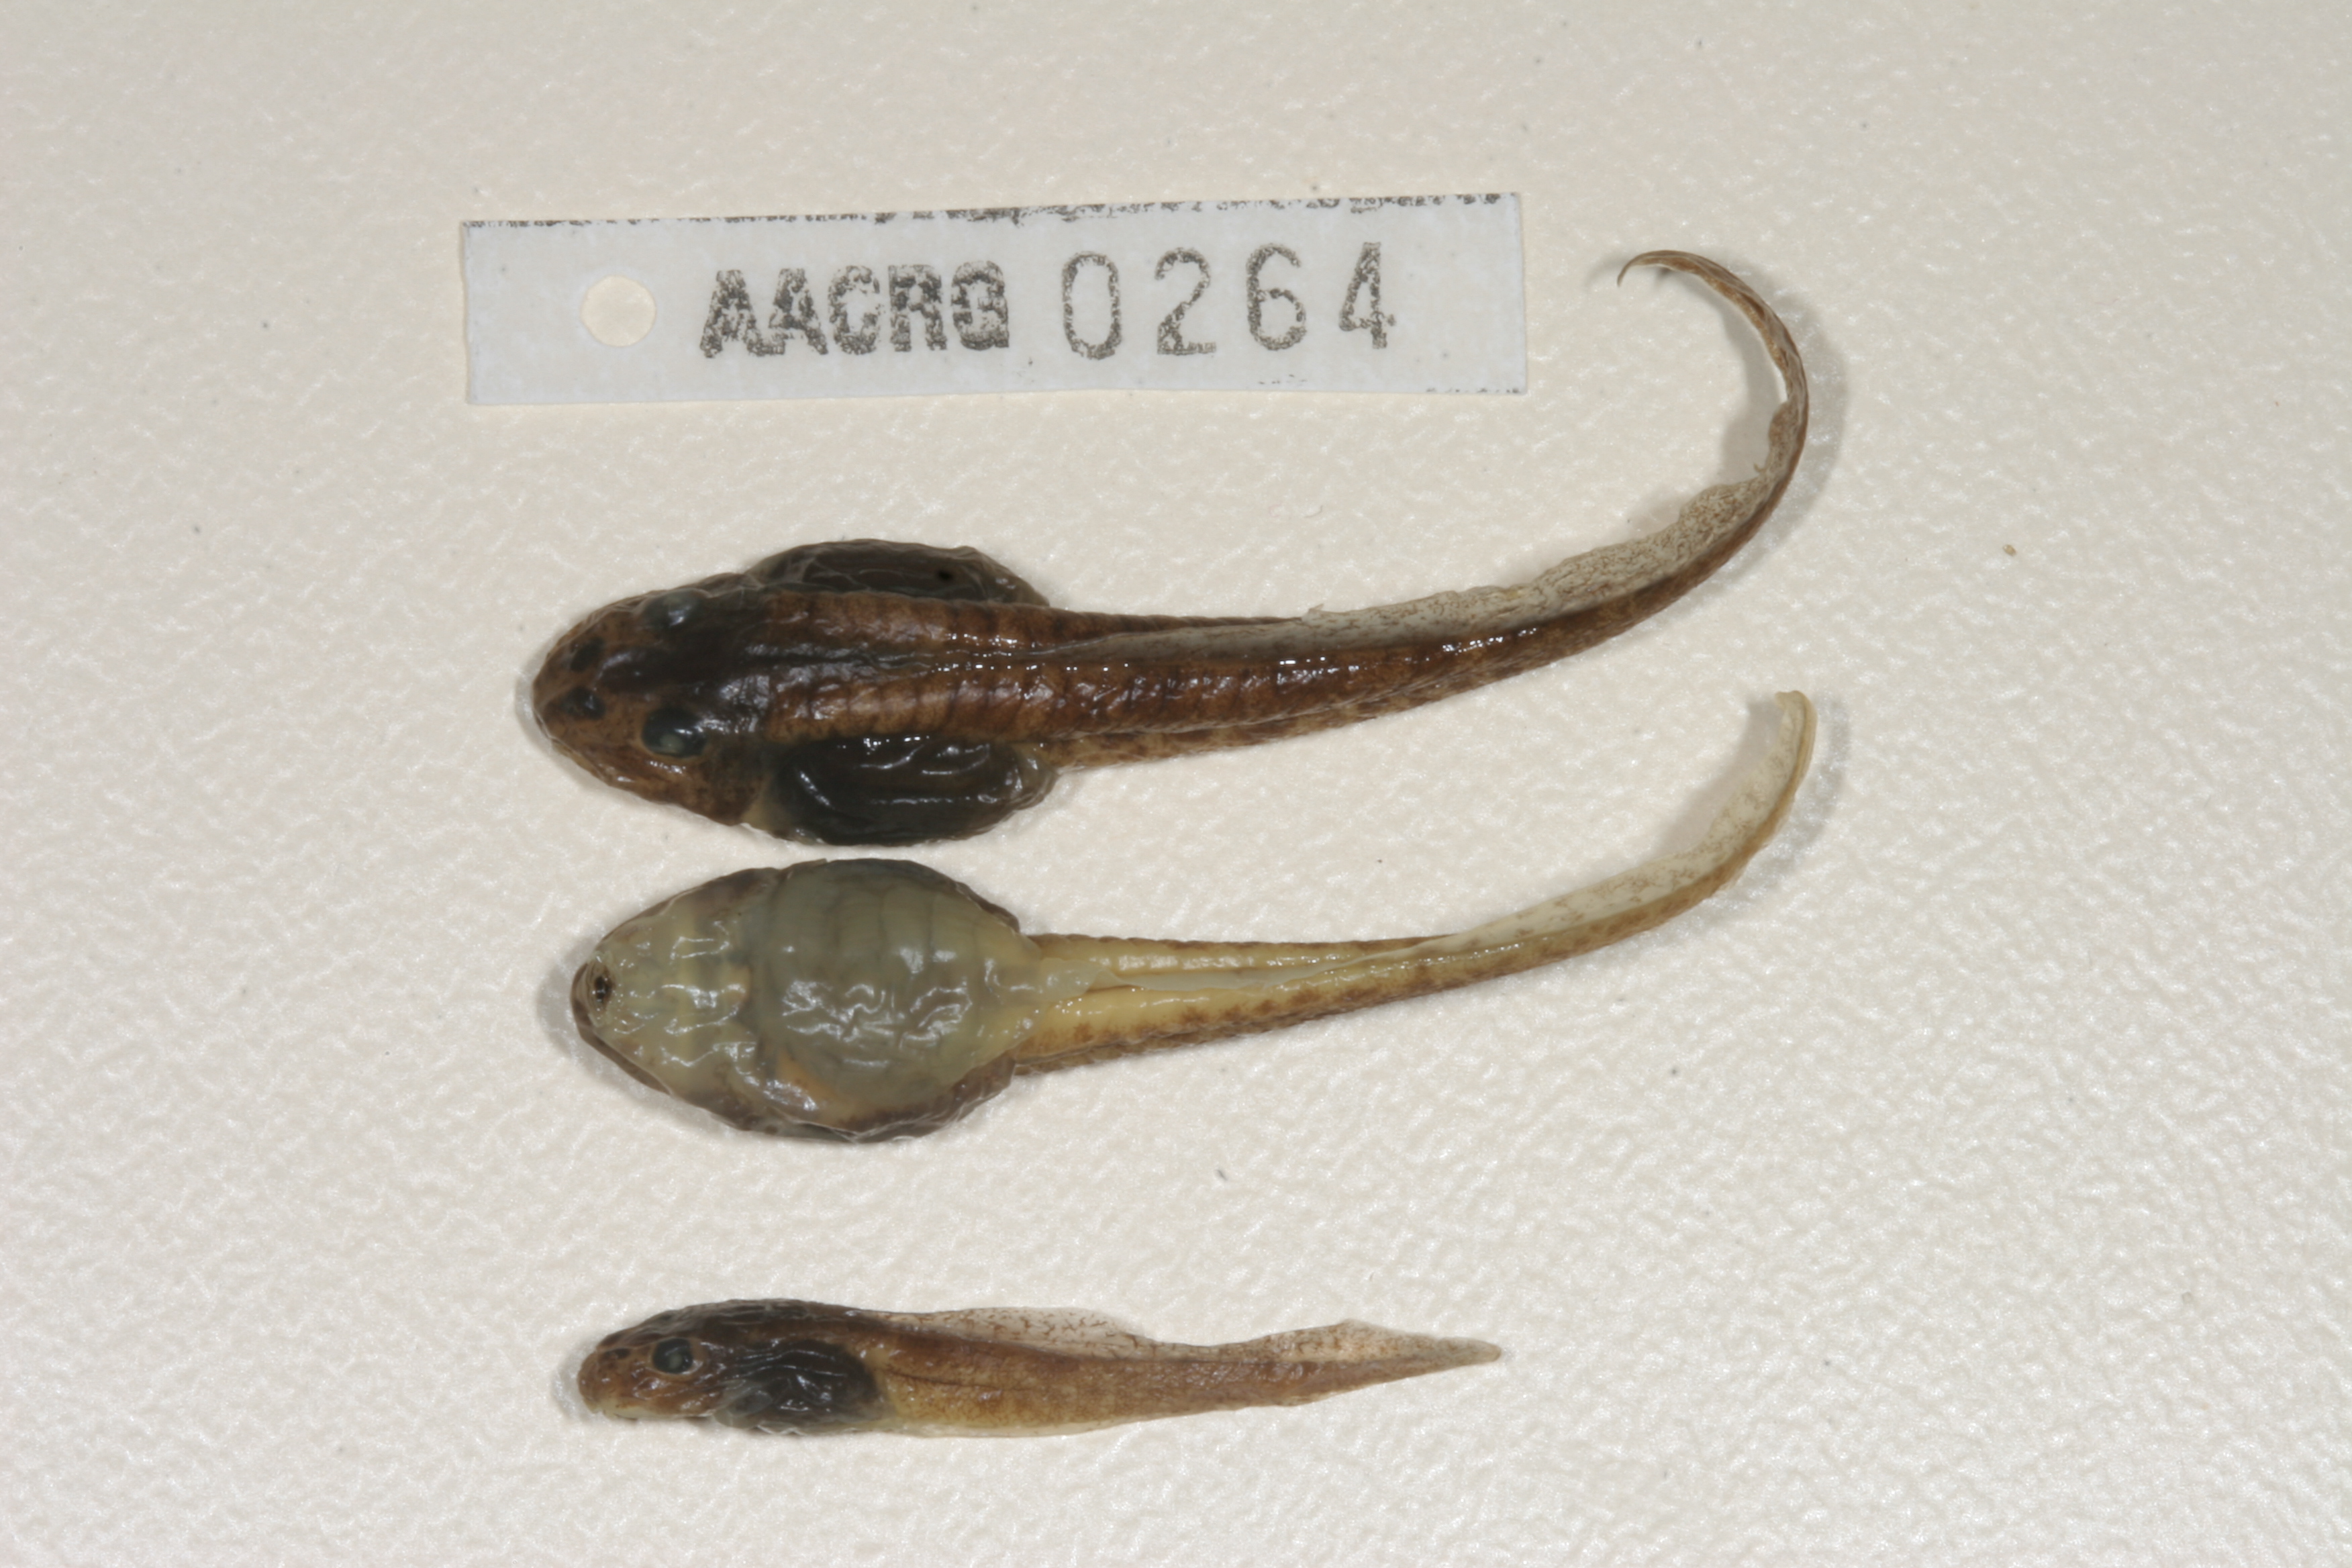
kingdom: Animalia
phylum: Chordata
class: Amphibia
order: Anura
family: Pyxicephalidae
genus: Amietia
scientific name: Amietia angolensis
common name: Dusky-throated frog
